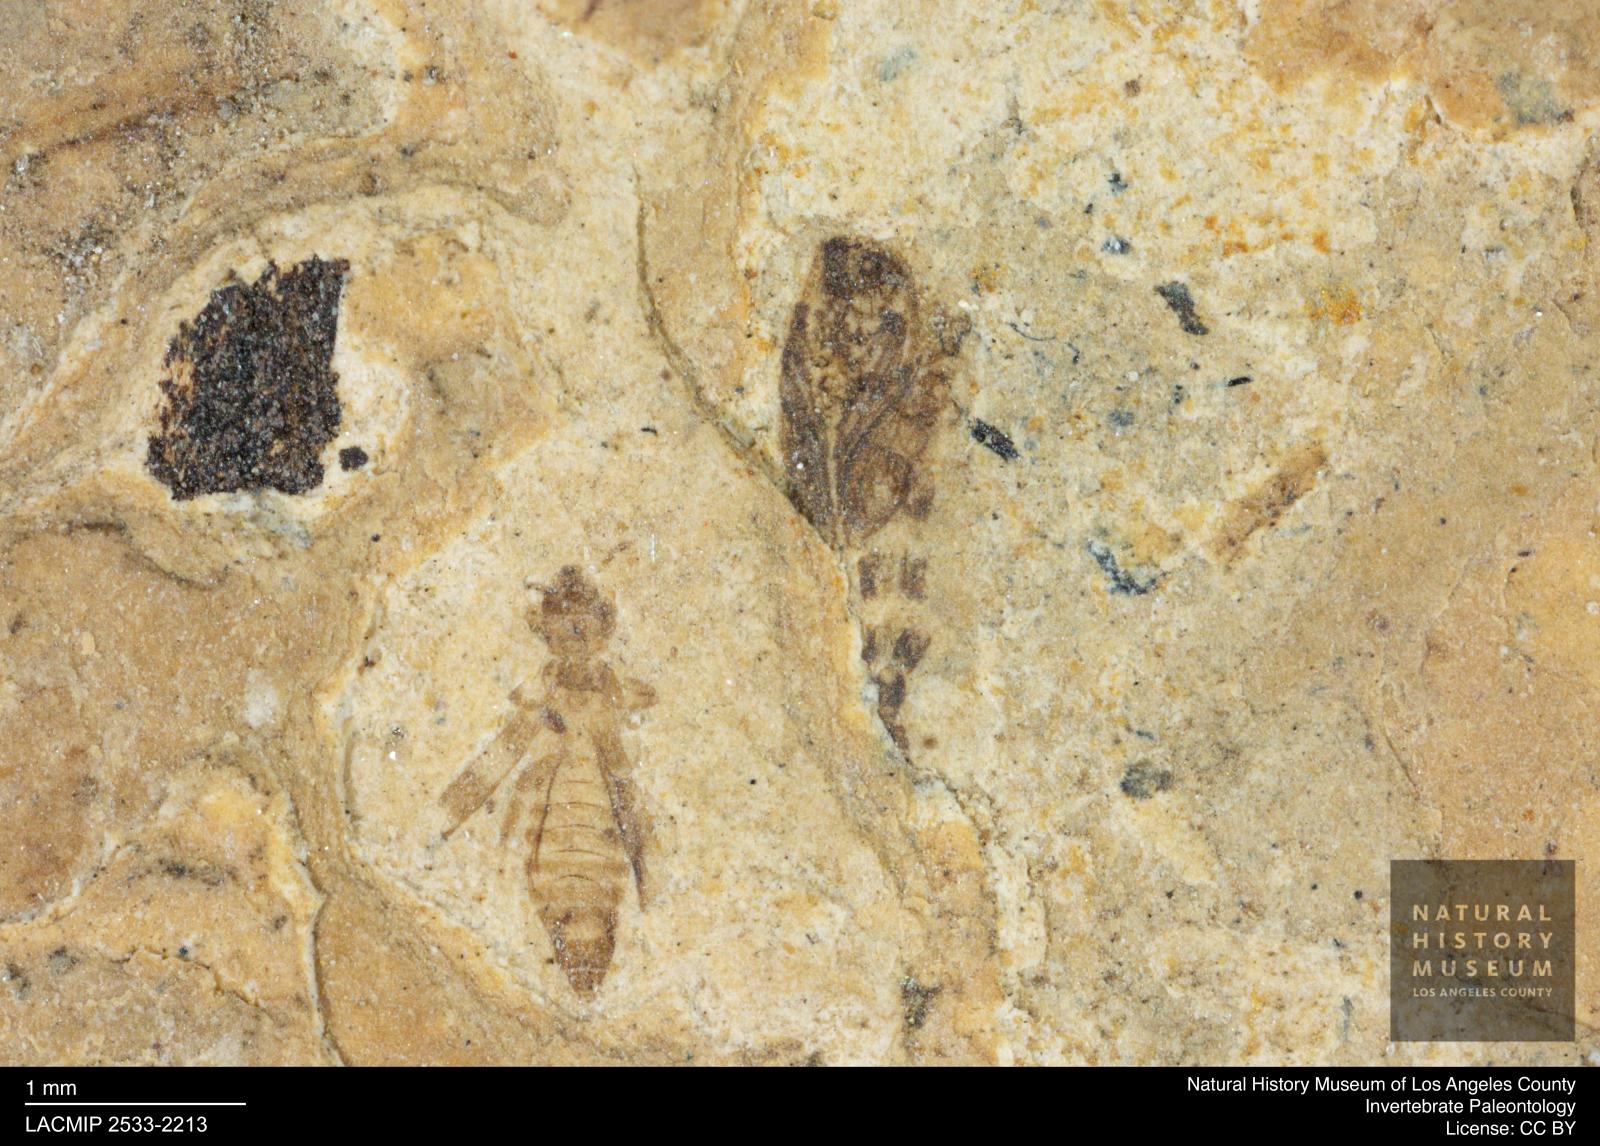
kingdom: Animalia
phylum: Arthropoda
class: Insecta
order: Diptera
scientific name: Diptera
